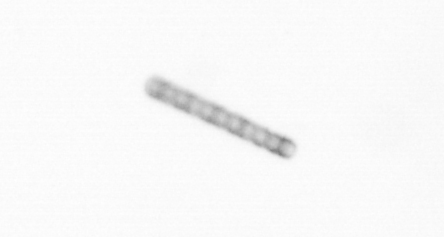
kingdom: Chromista
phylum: Ochrophyta
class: Bacillariophyceae
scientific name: Bacillariophyceae
